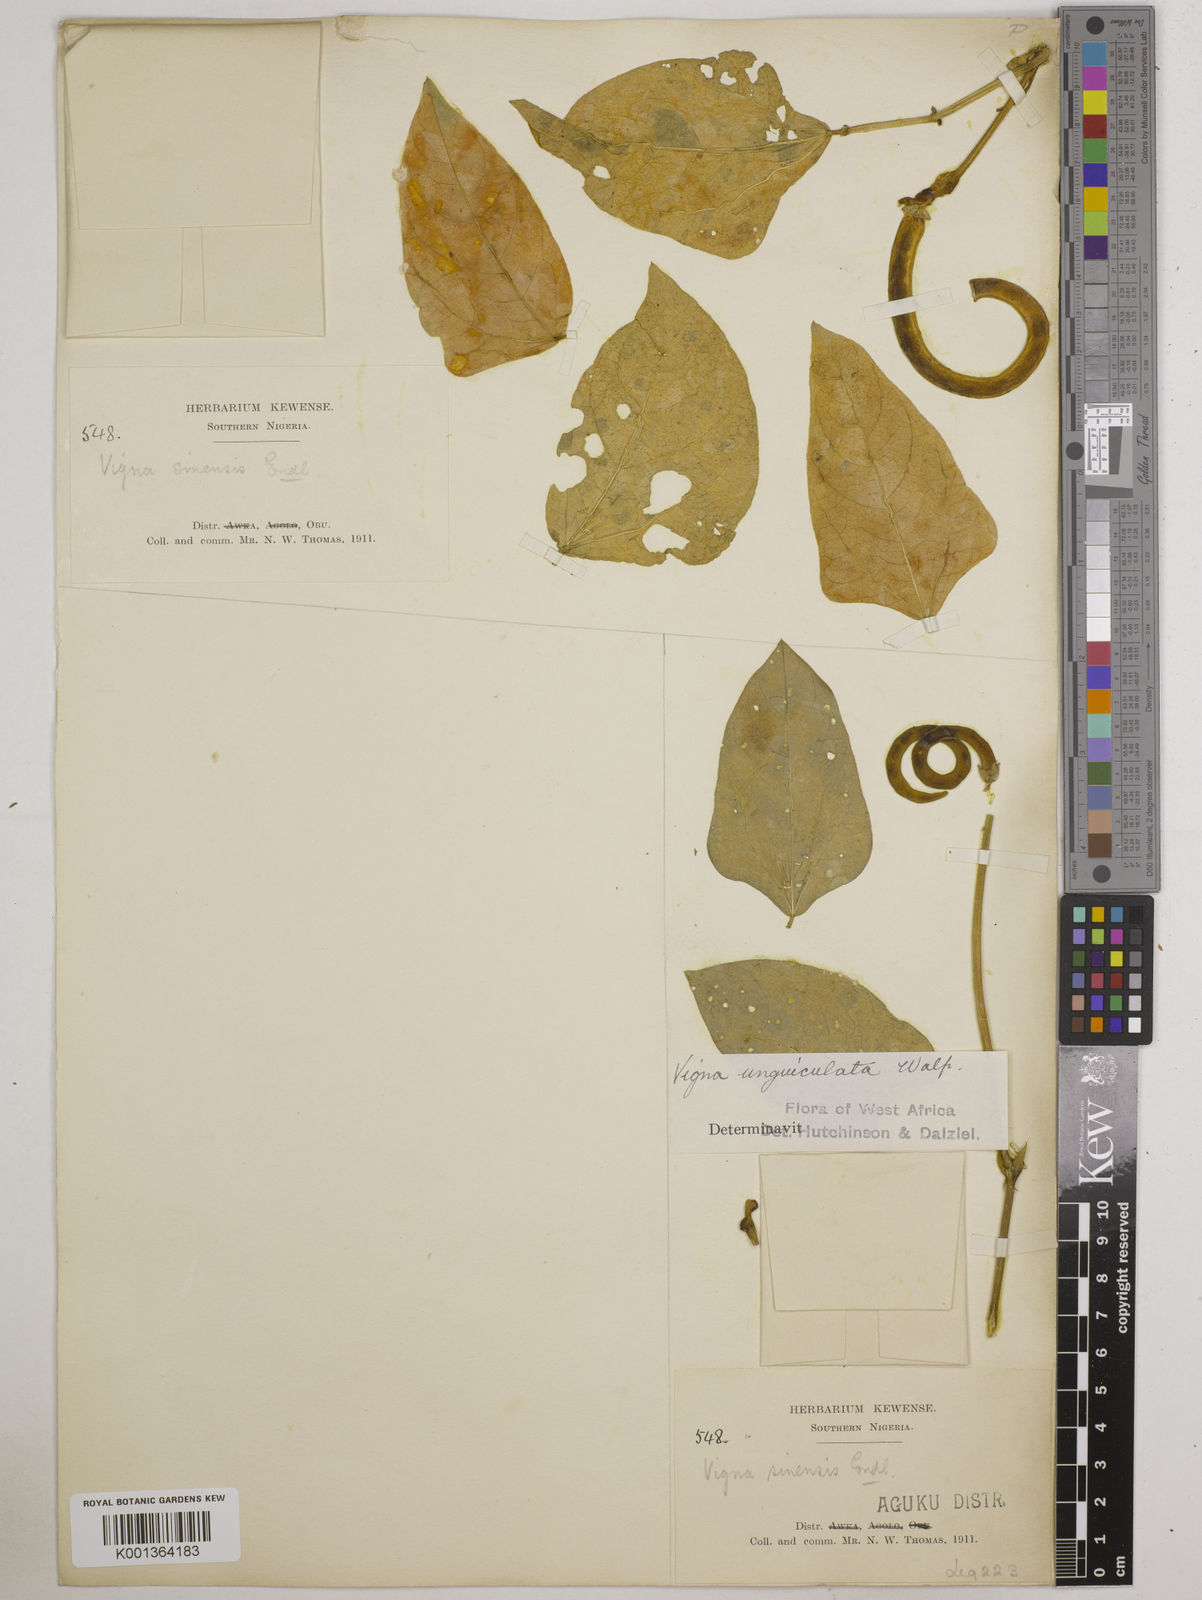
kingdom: Plantae
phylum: Tracheophyta
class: Magnoliopsida
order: Fabales
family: Fabaceae
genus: Vigna
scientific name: Vigna
